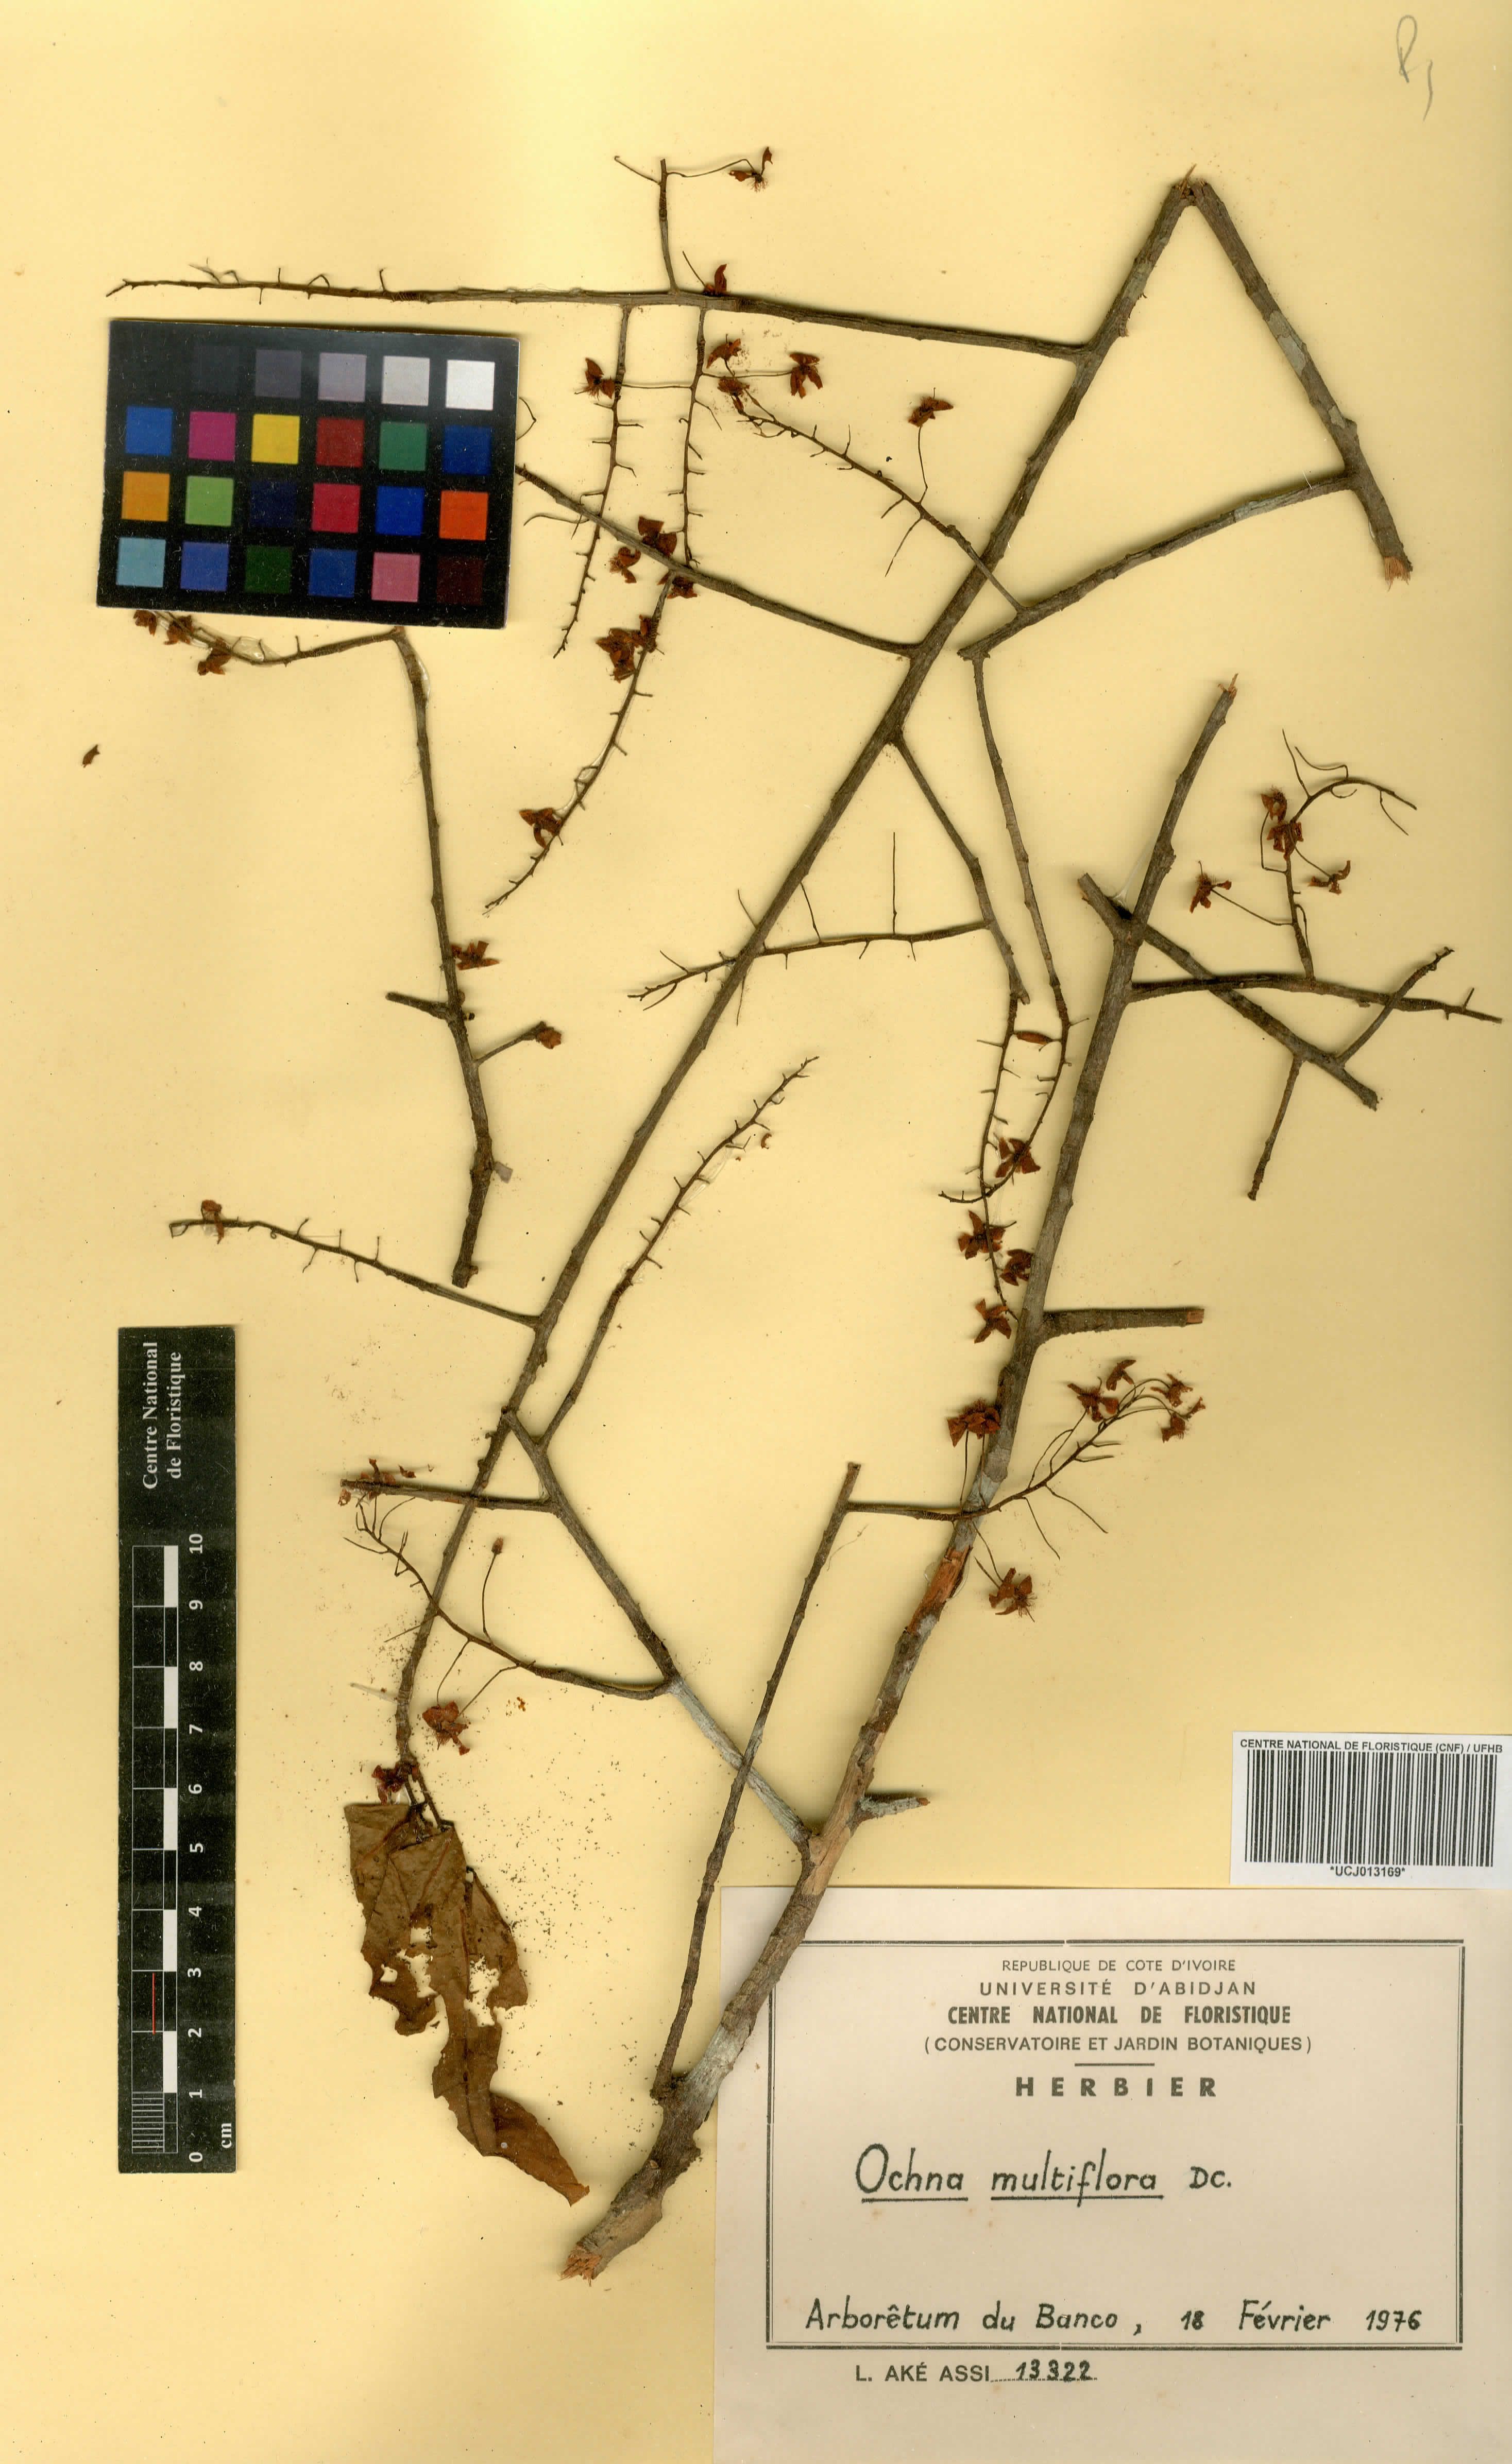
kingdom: Plantae
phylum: Tracheophyta
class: Magnoliopsida
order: Malpighiales
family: Ochnaceae
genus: Ochna
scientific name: Ochna multiflora
